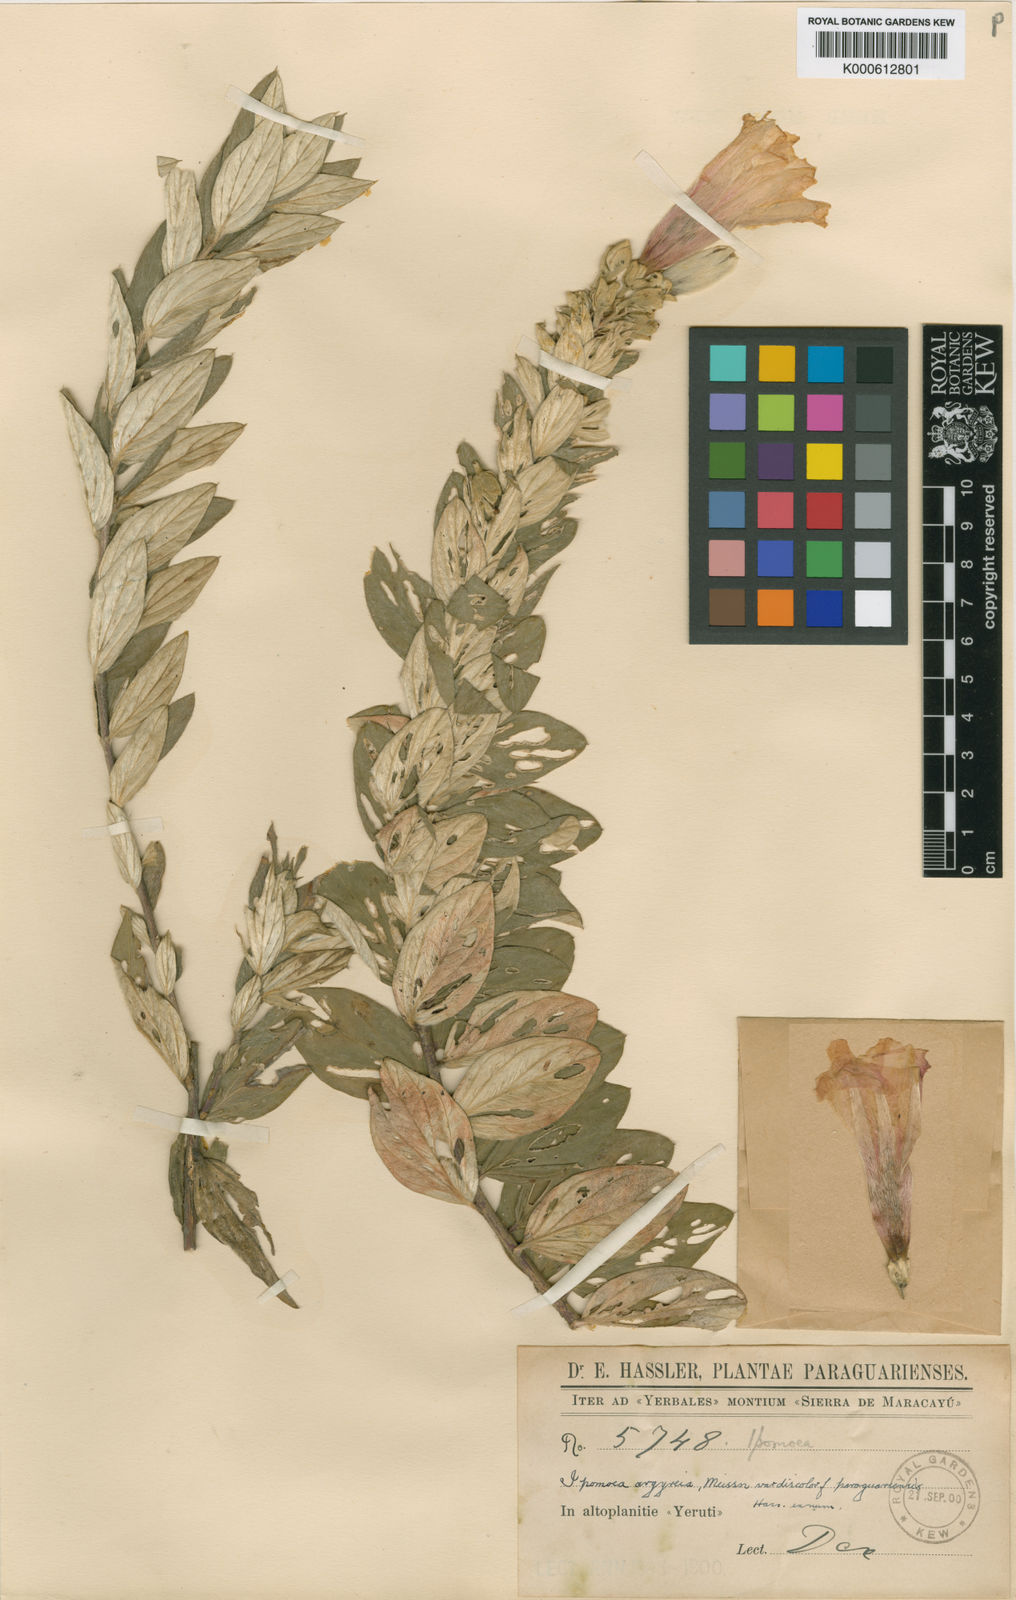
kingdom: Plantae
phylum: Tracheophyta
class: Magnoliopsida
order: Solanales
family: Convolvulaceae
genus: Ipomoea
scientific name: Ipomoea paraguariensis
